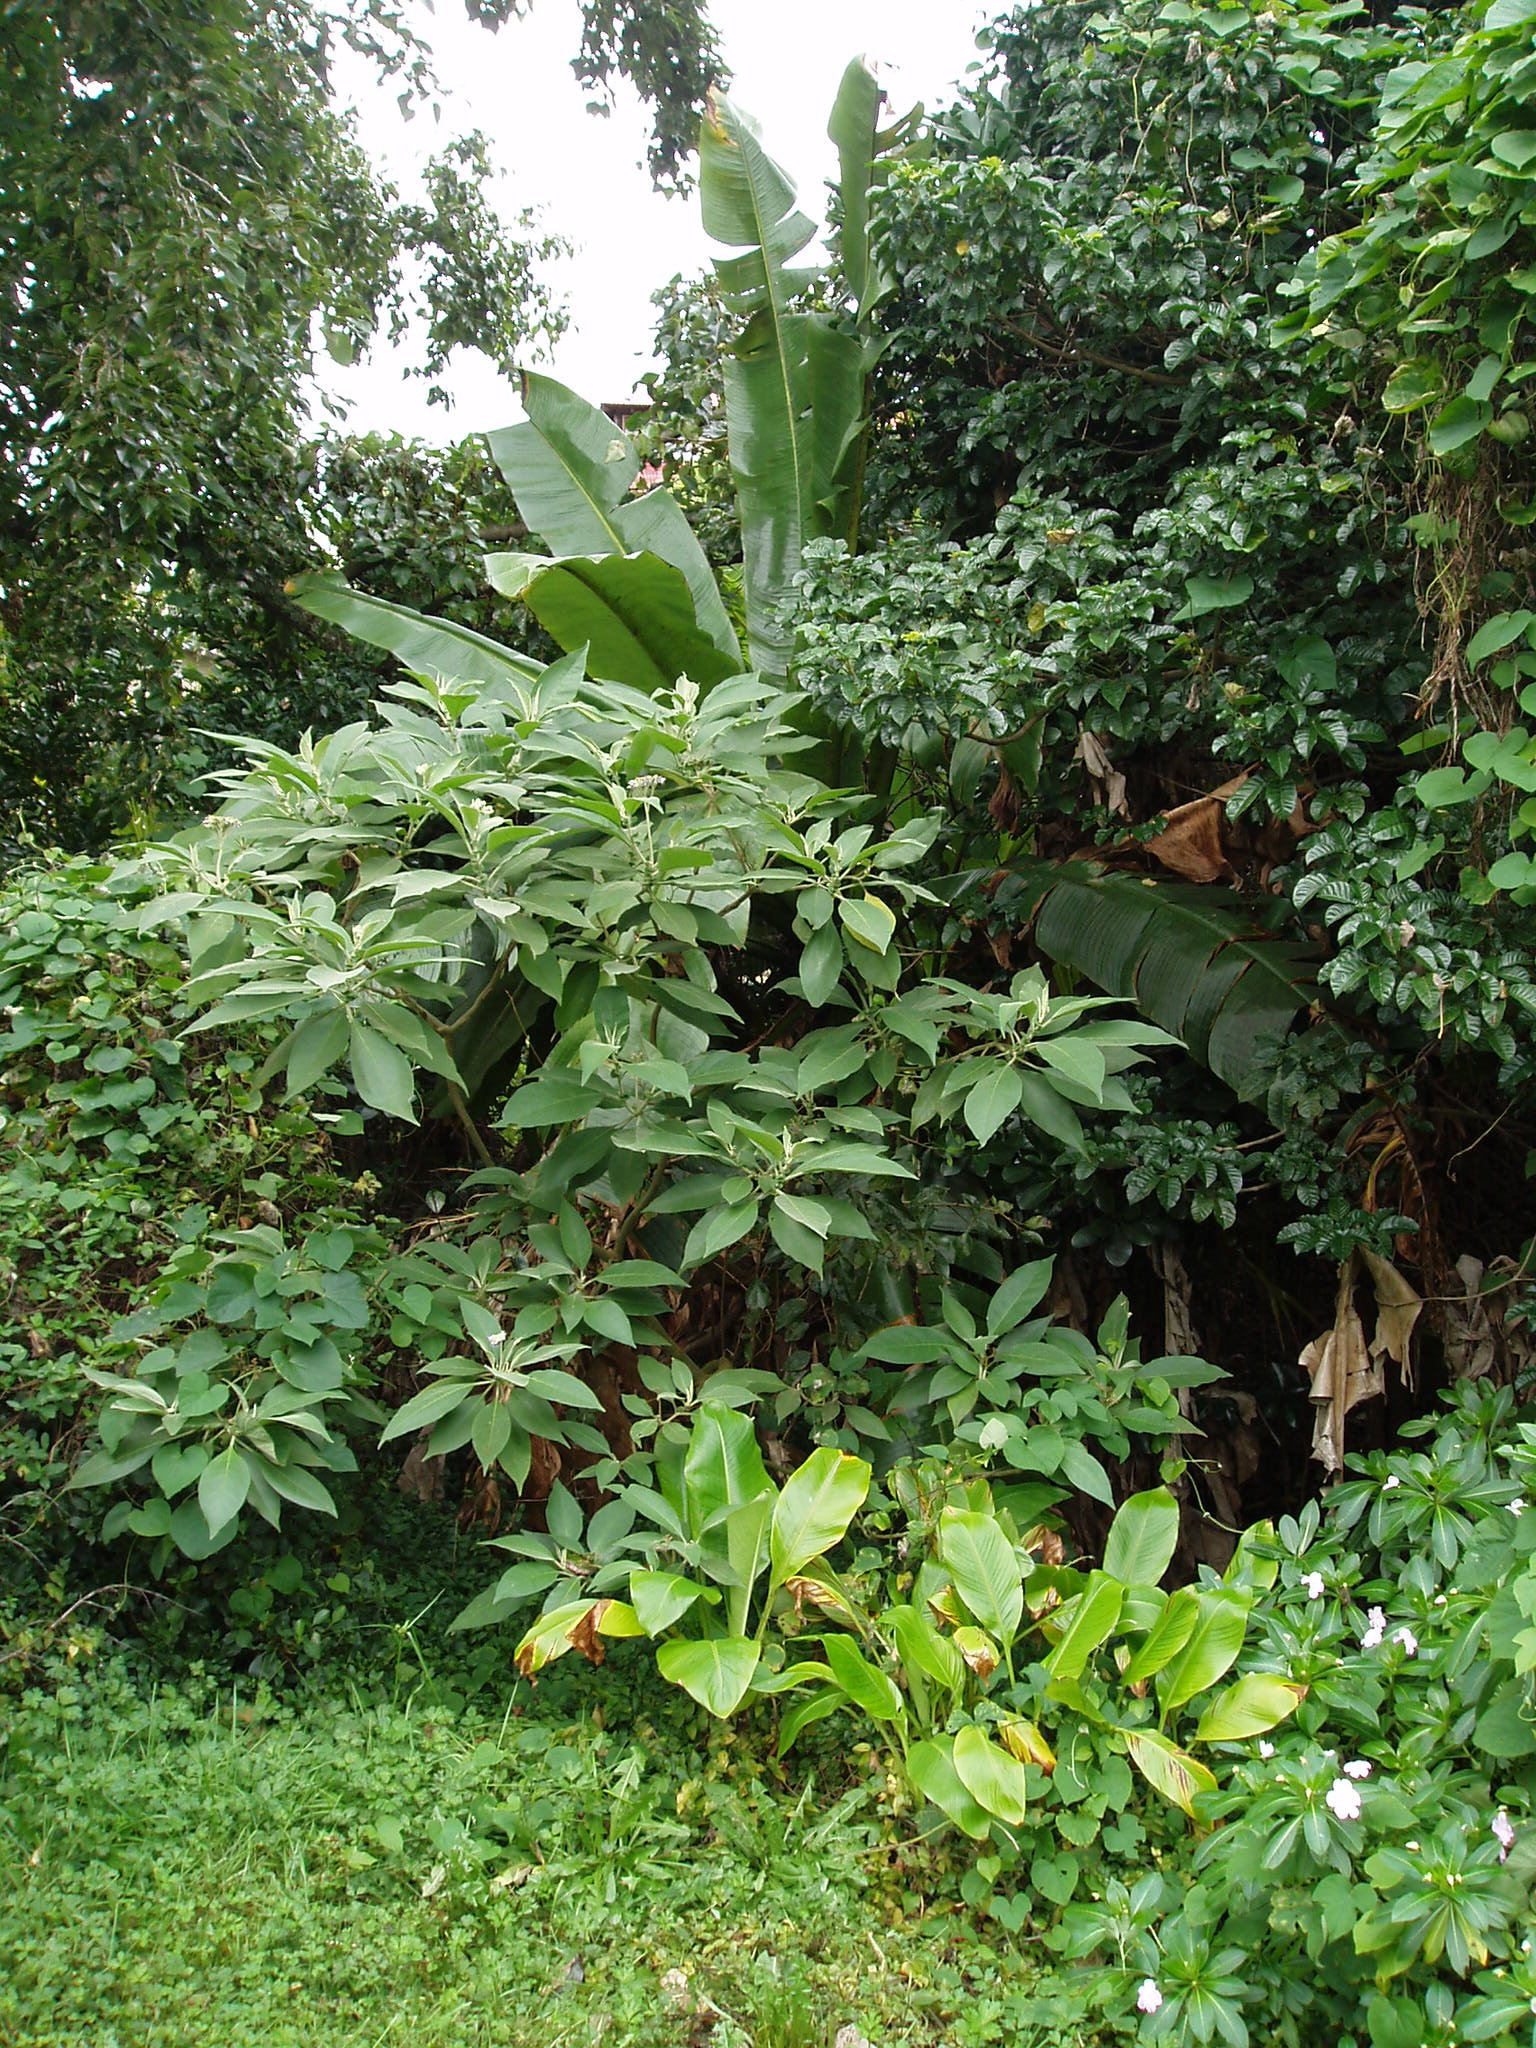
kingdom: Plantae
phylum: Tracheophyta
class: Liliopsida
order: Zingiberales
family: Musaceae
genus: Ensete
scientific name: Ensete ventricosum
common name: Abyssinian banana
